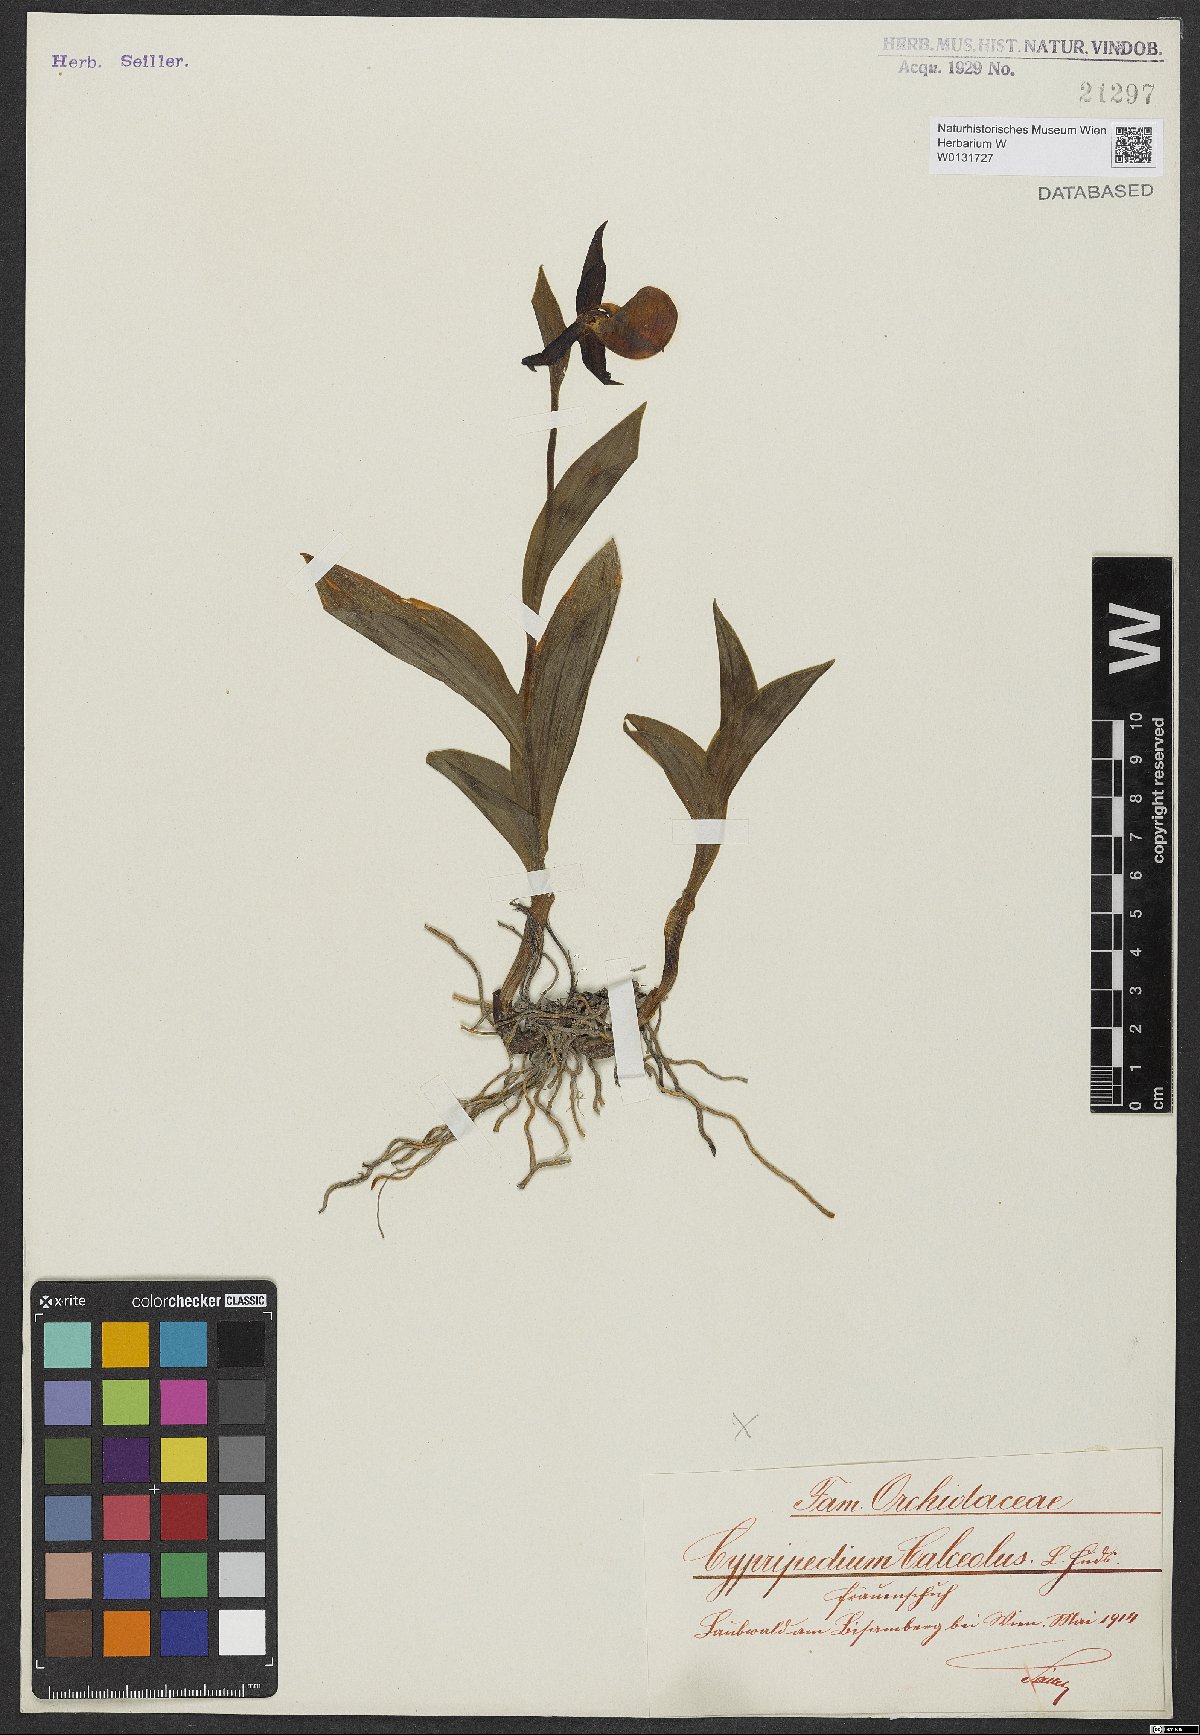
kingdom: Plantae
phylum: Tracheophyta
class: Liliopsida
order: Asparagales
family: Orchidaceae
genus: Cypripedium
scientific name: Cypripedium calceolus
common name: Lady's-slipper
